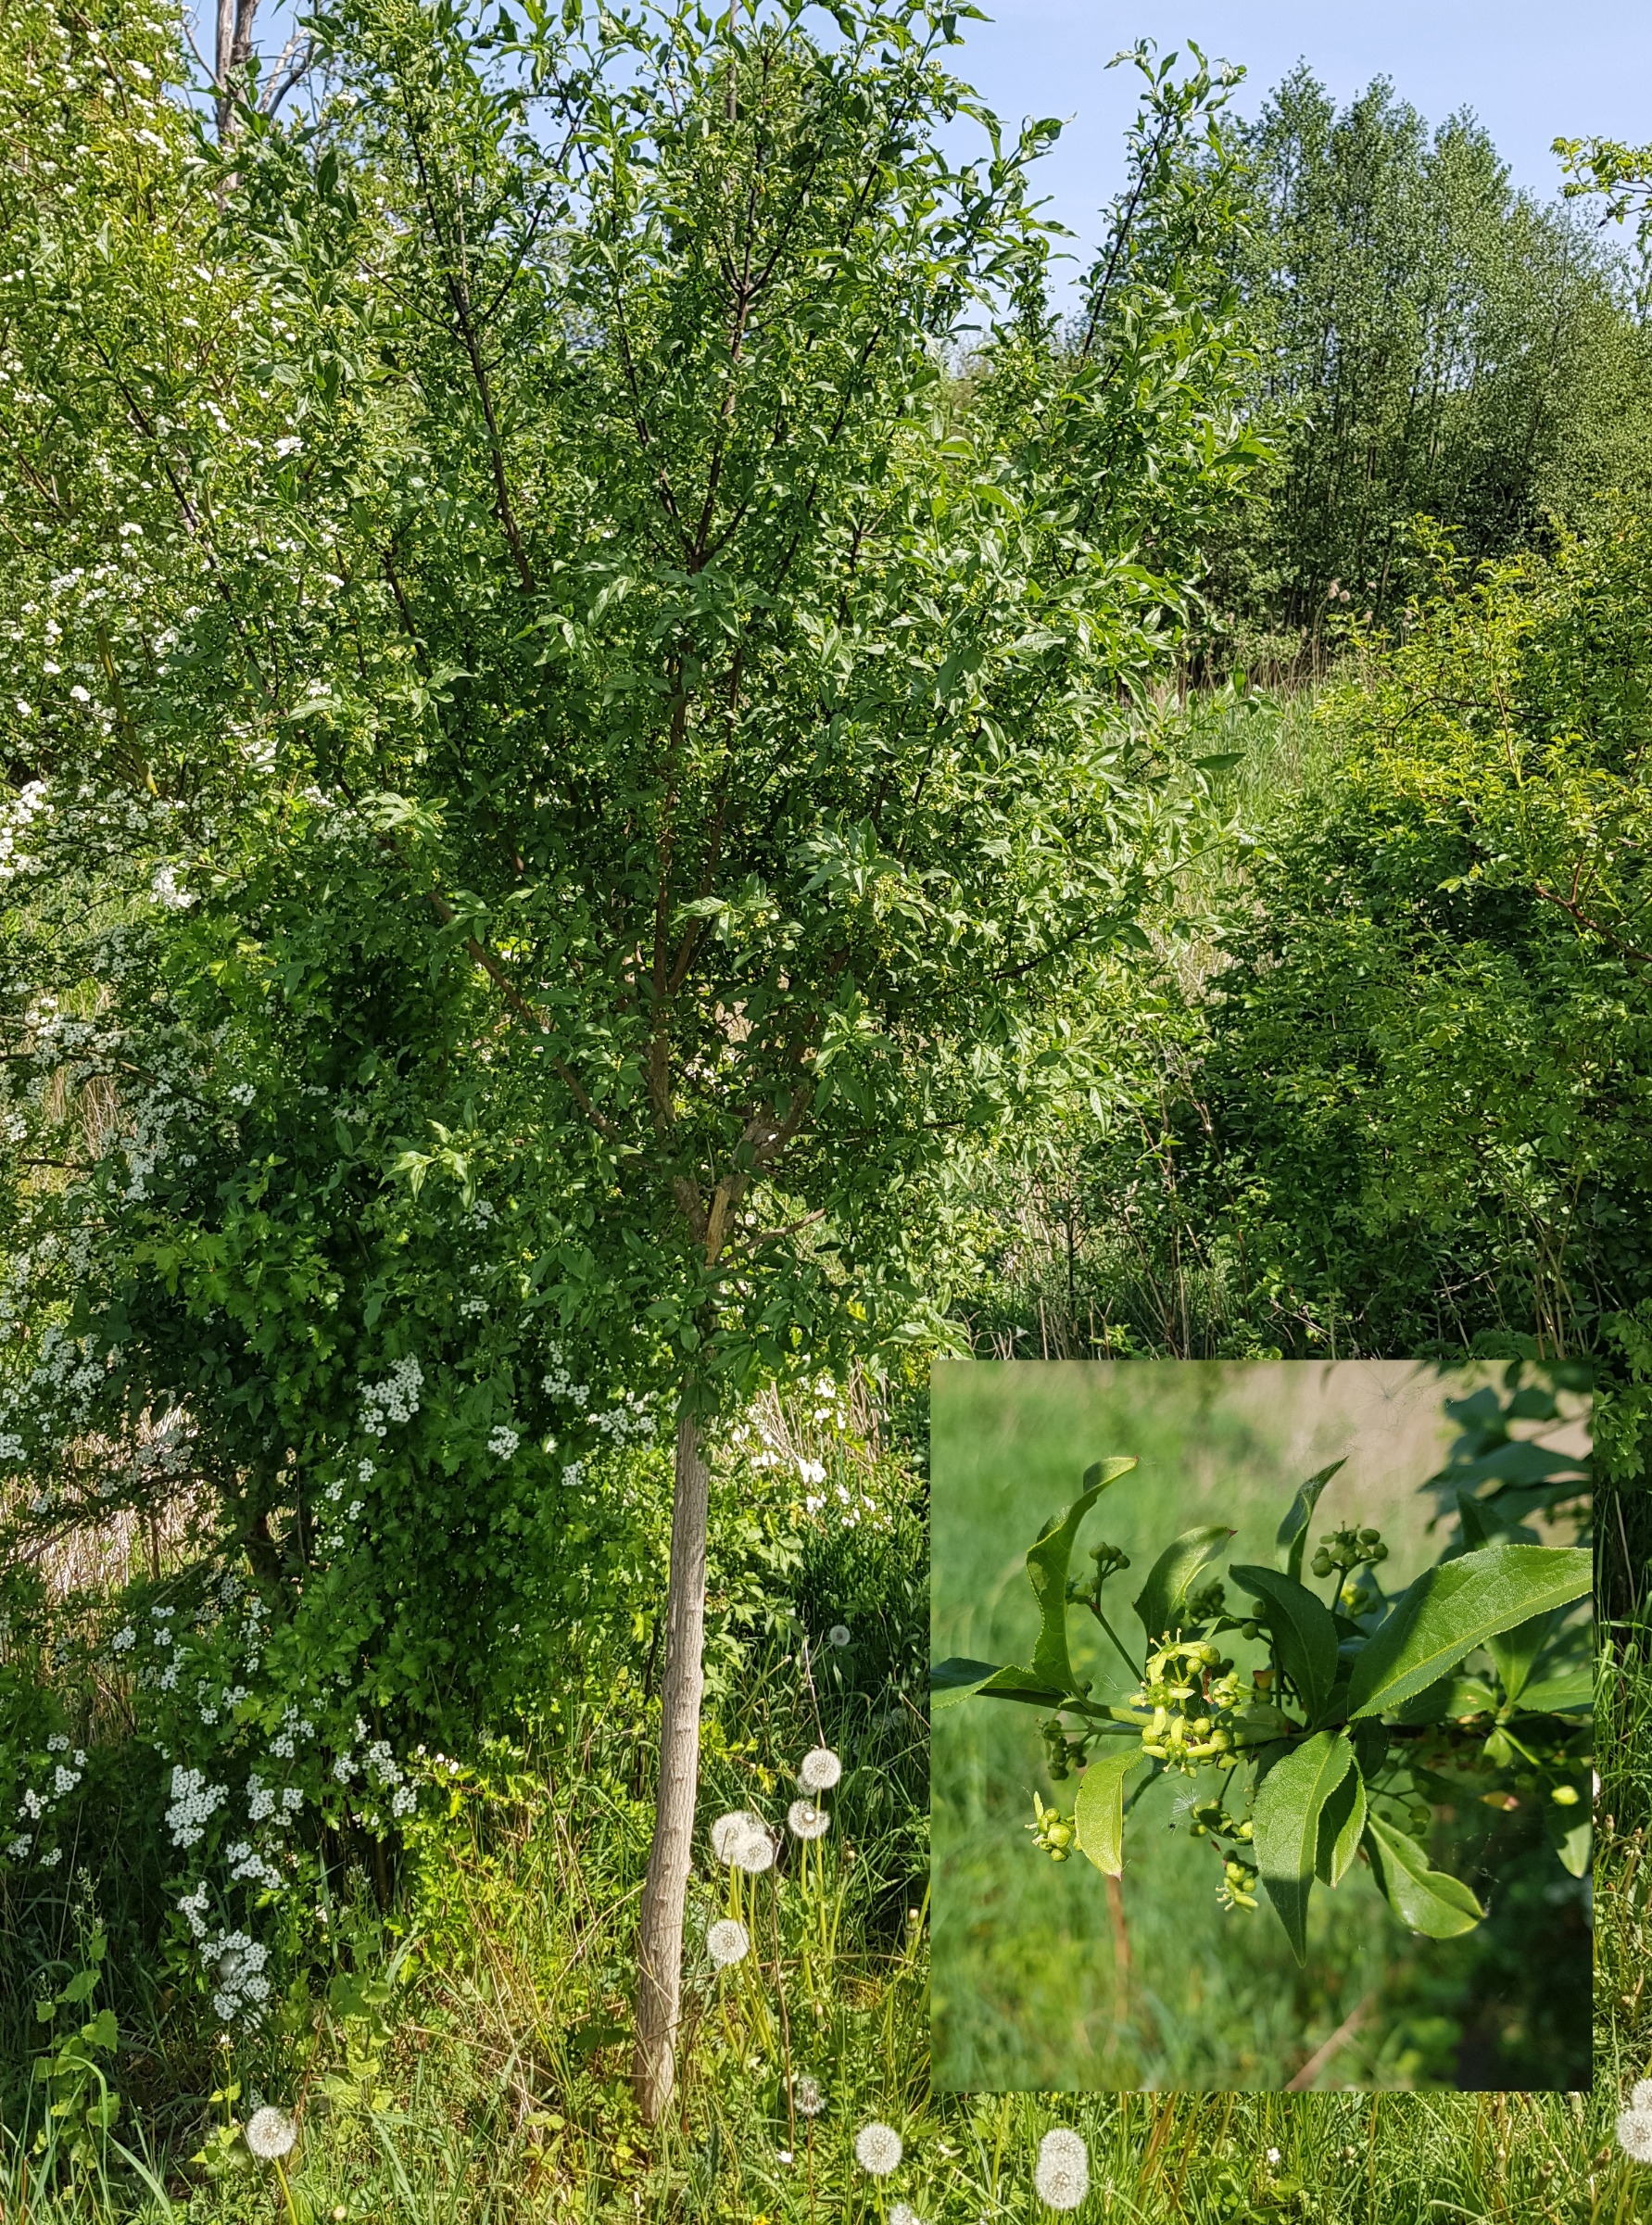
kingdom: Plantae
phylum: Tracheophyta
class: Magnoliopsida
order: Celastrales
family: Celastraceae
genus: Euonymus
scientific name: Euonymus europaeus
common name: Benved
